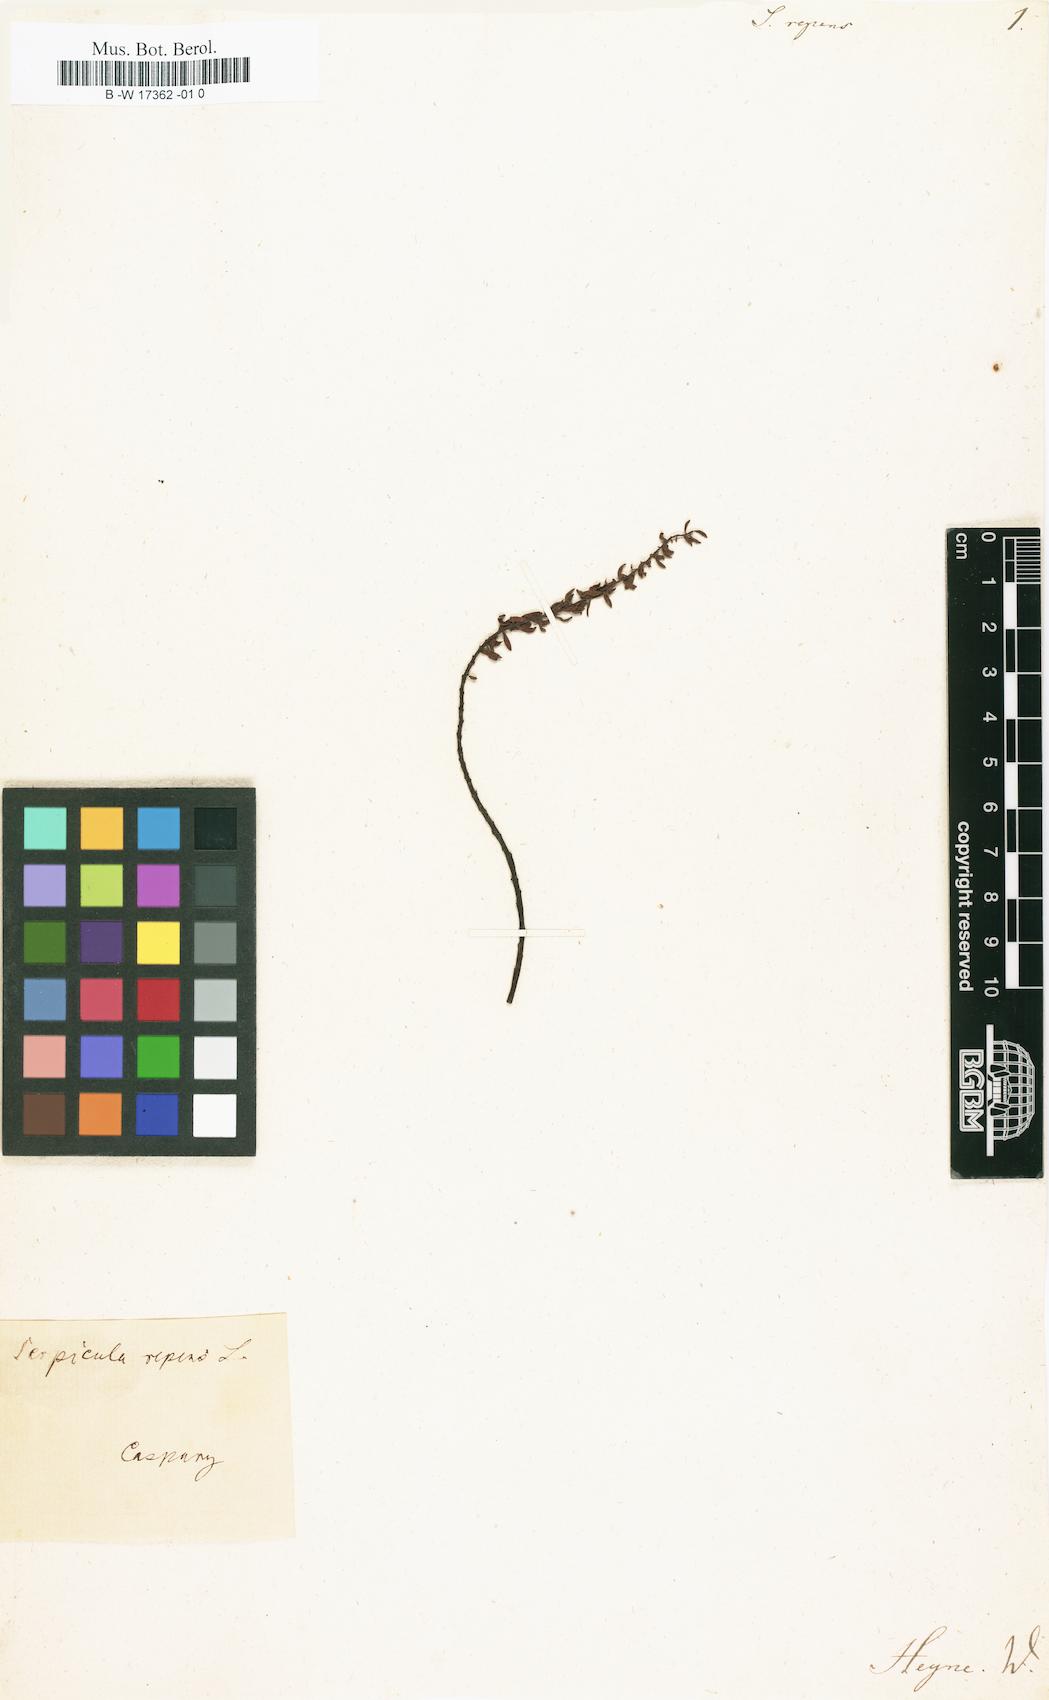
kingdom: Plantae
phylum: Tracheophyta
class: Magnoliopsida
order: Saxifragales
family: Haloragaceae
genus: Laurembergia
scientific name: Laurembergia repens
